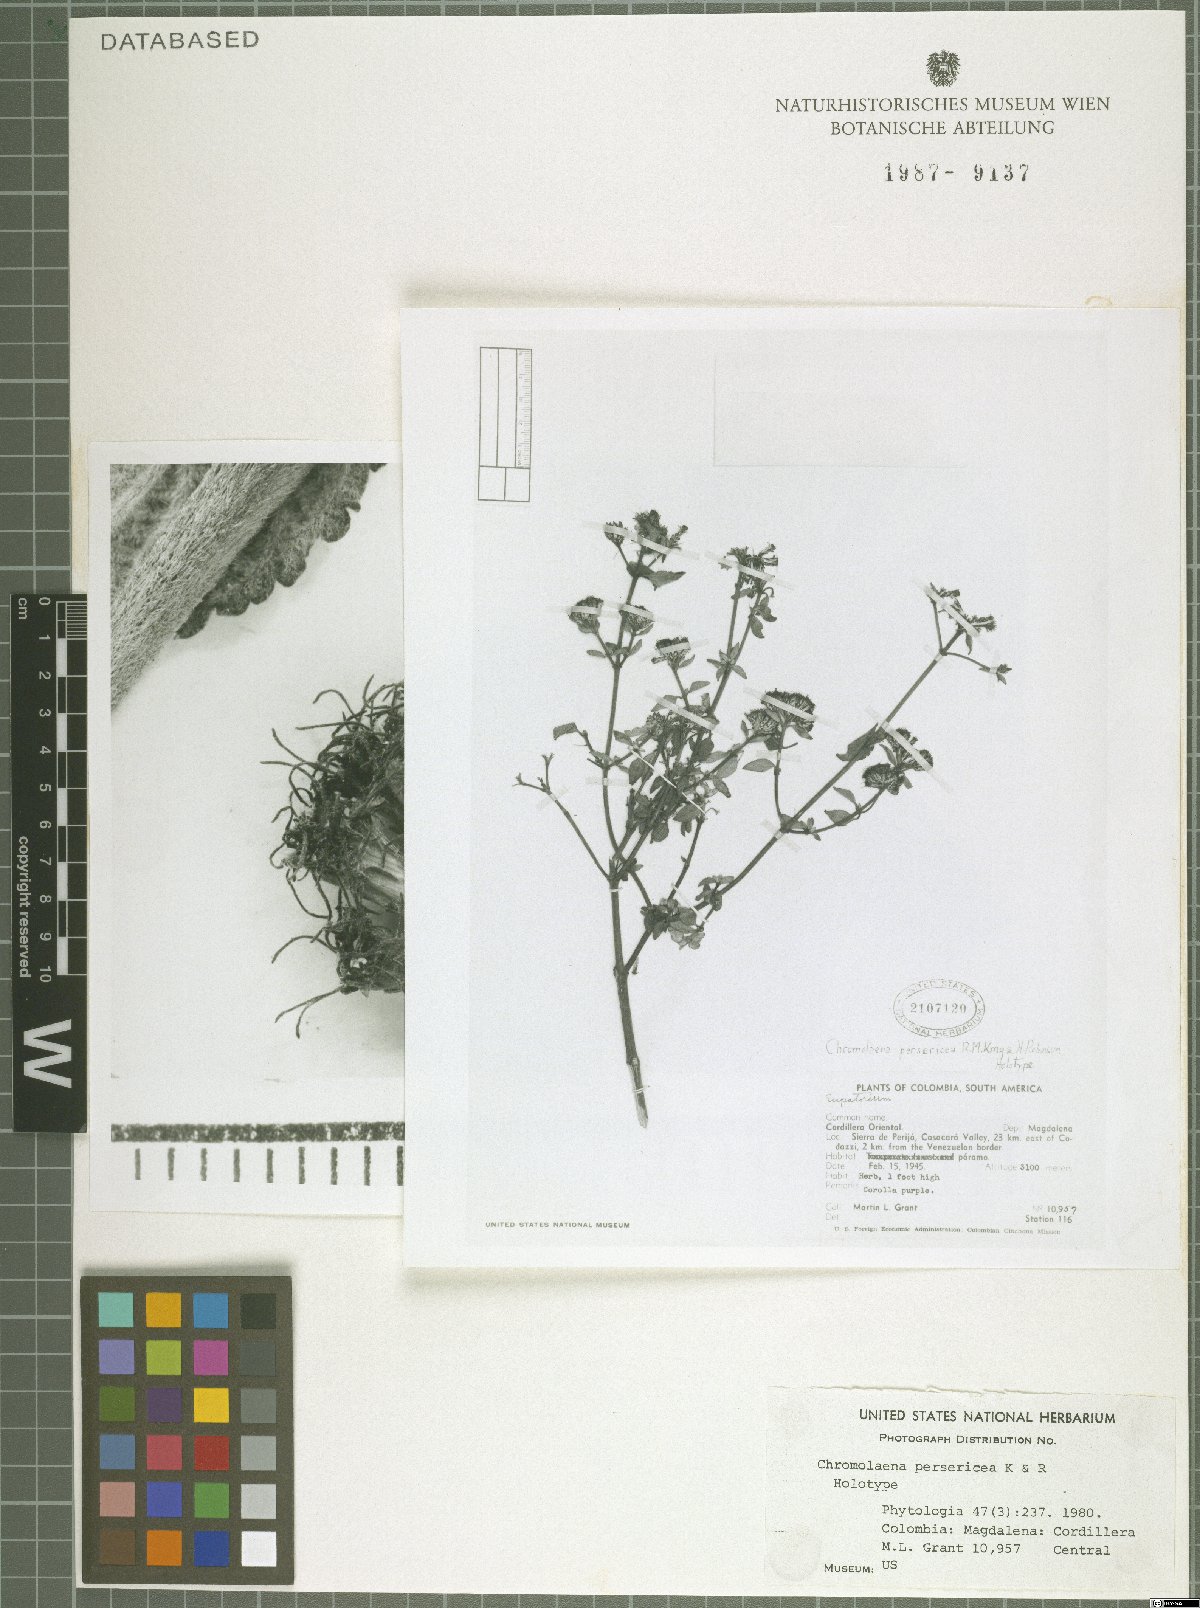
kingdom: Plantae
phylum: Tracheophyta
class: Magnoliopsida
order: Asterales
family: Asteraceae
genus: Chromolaena
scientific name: Chromolaena persericea
